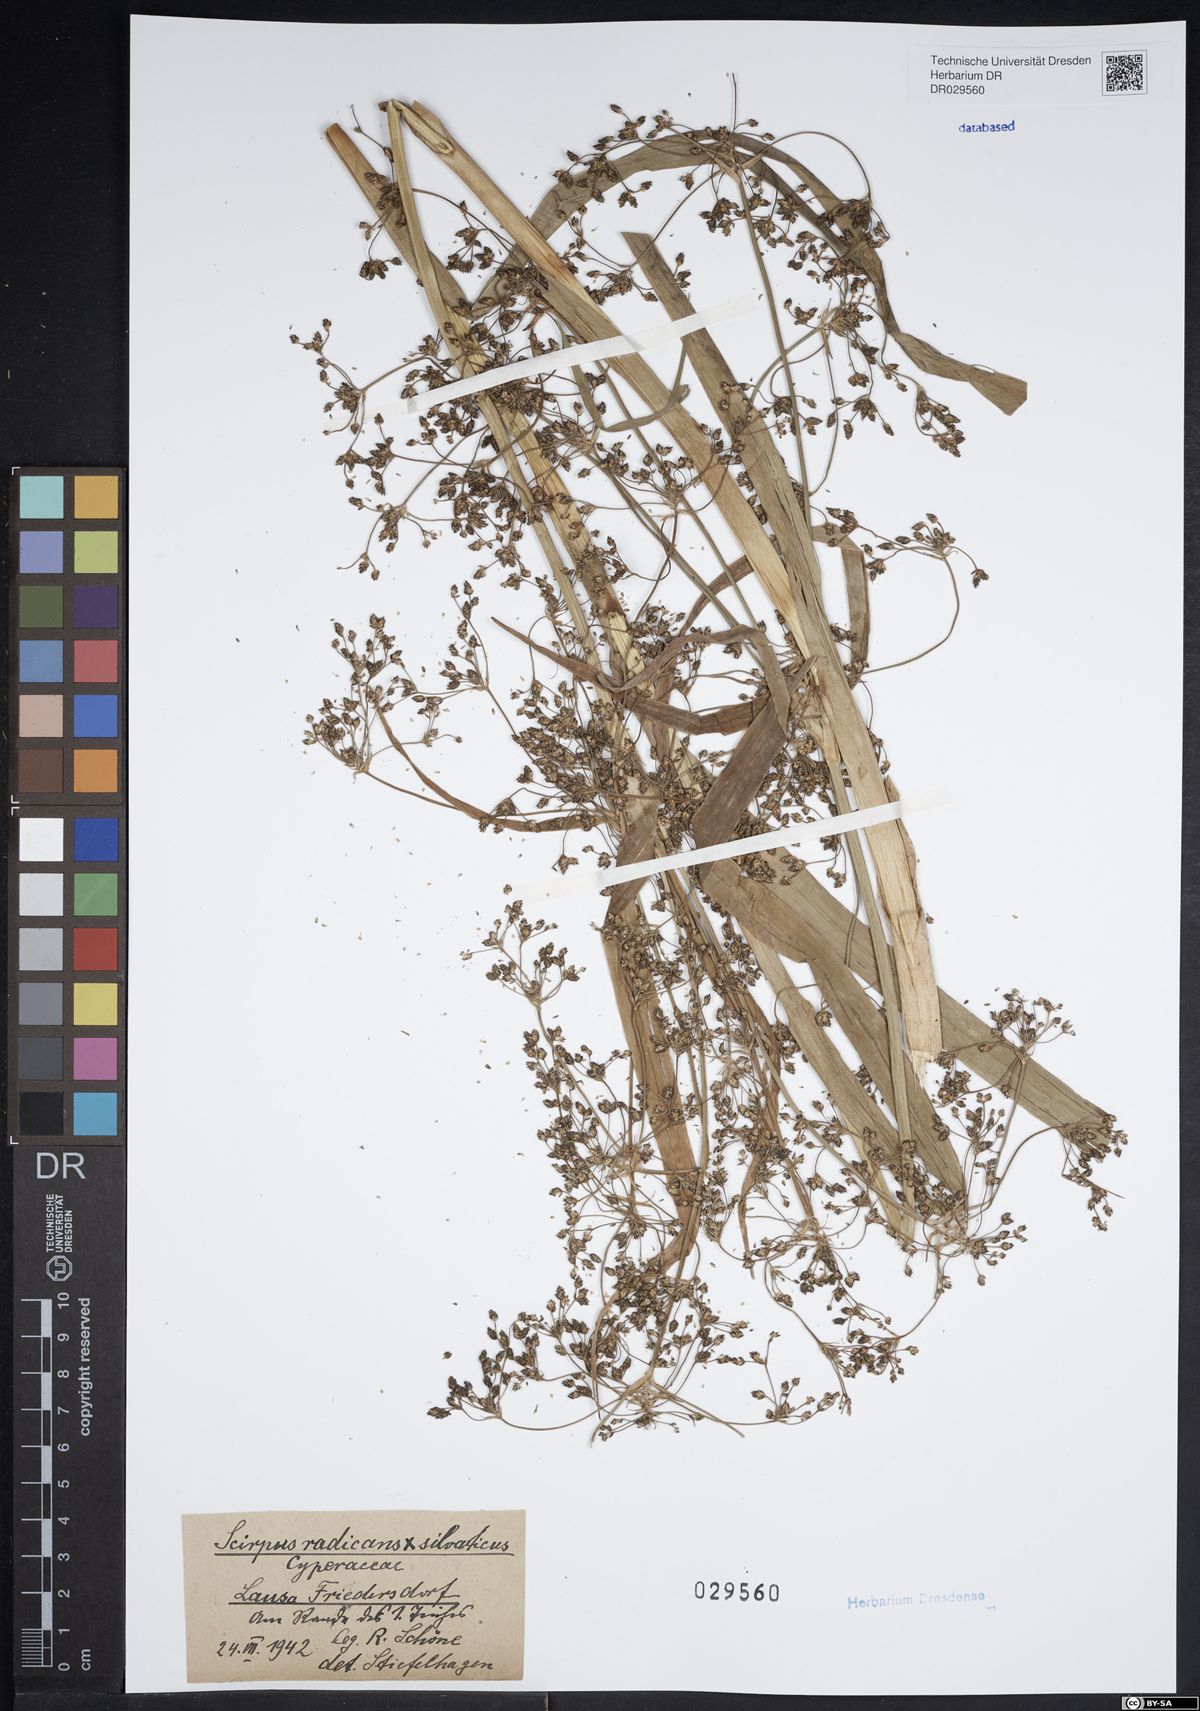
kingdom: Plantae
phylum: Tracheophyta
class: Liliopsida
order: Poales
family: Cyperaceae
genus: Scirpus
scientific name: Scirpus radicans
